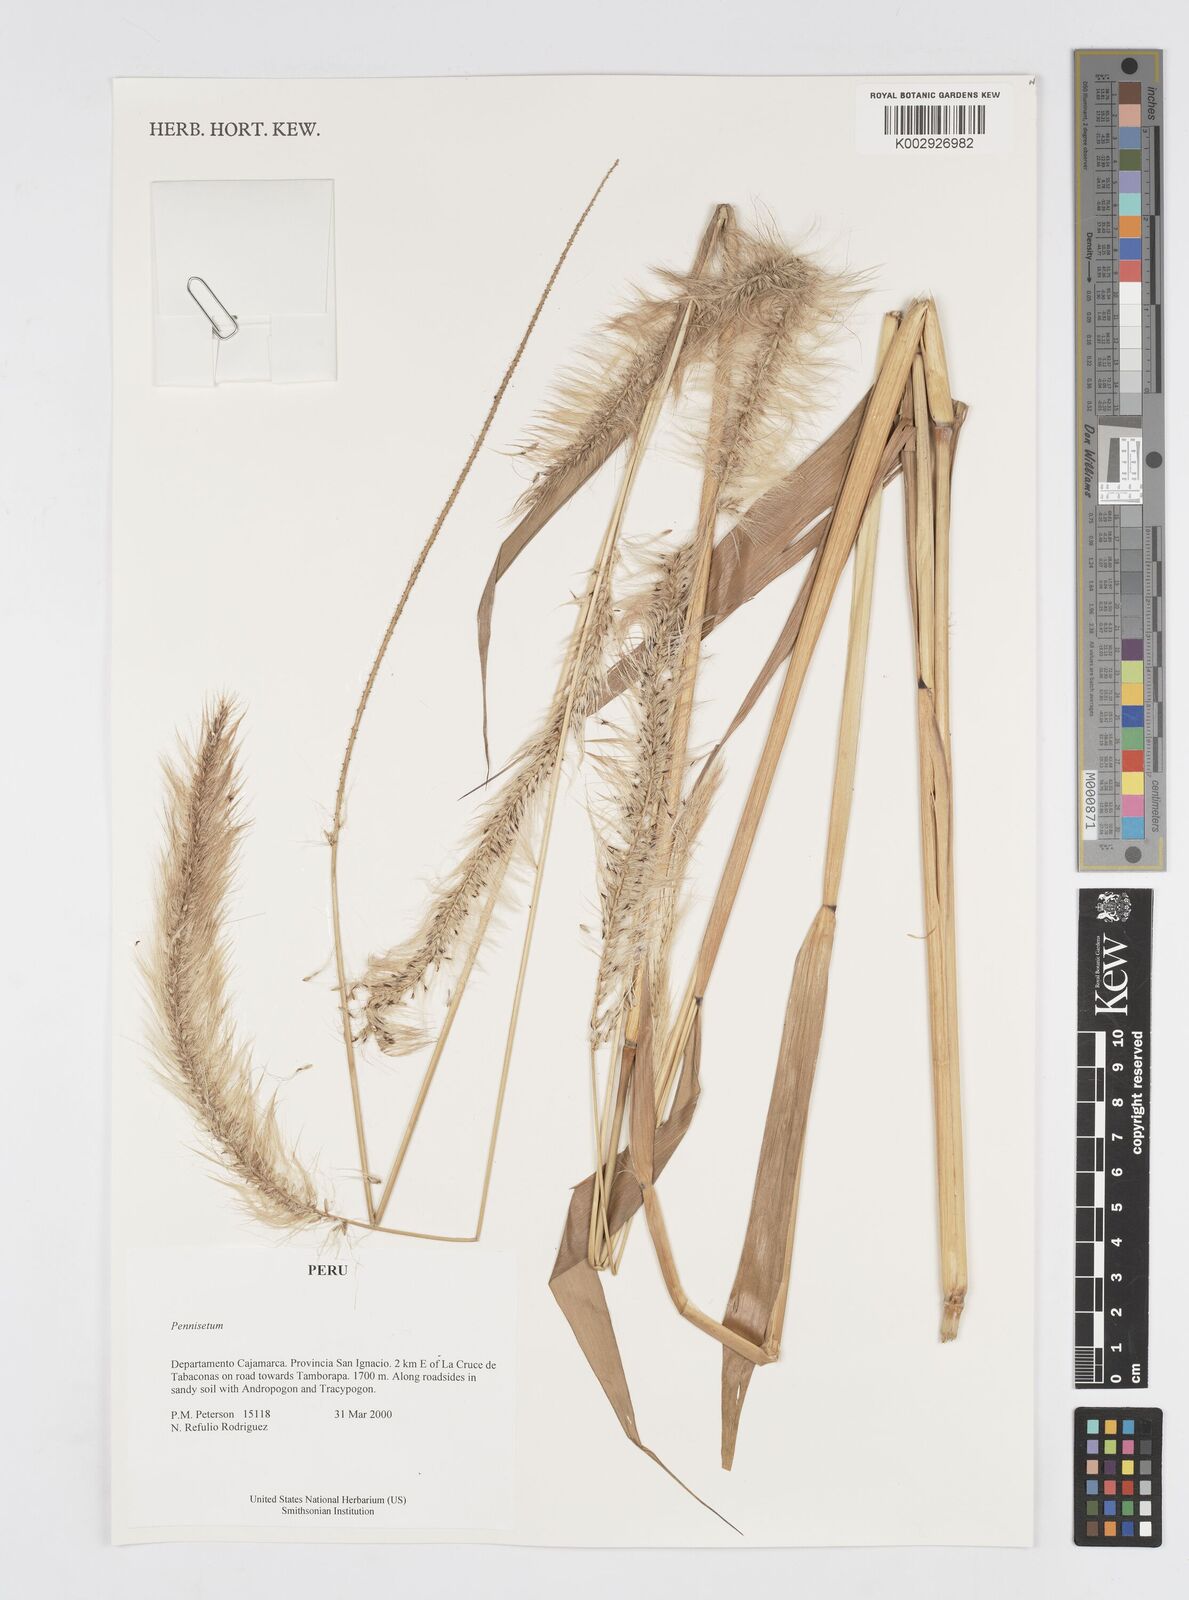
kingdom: Plantae
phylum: Tracheophyta
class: Liliopsida
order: Poales
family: Poaceae
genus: Cenchrus
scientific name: Cenchrus peruvianus
